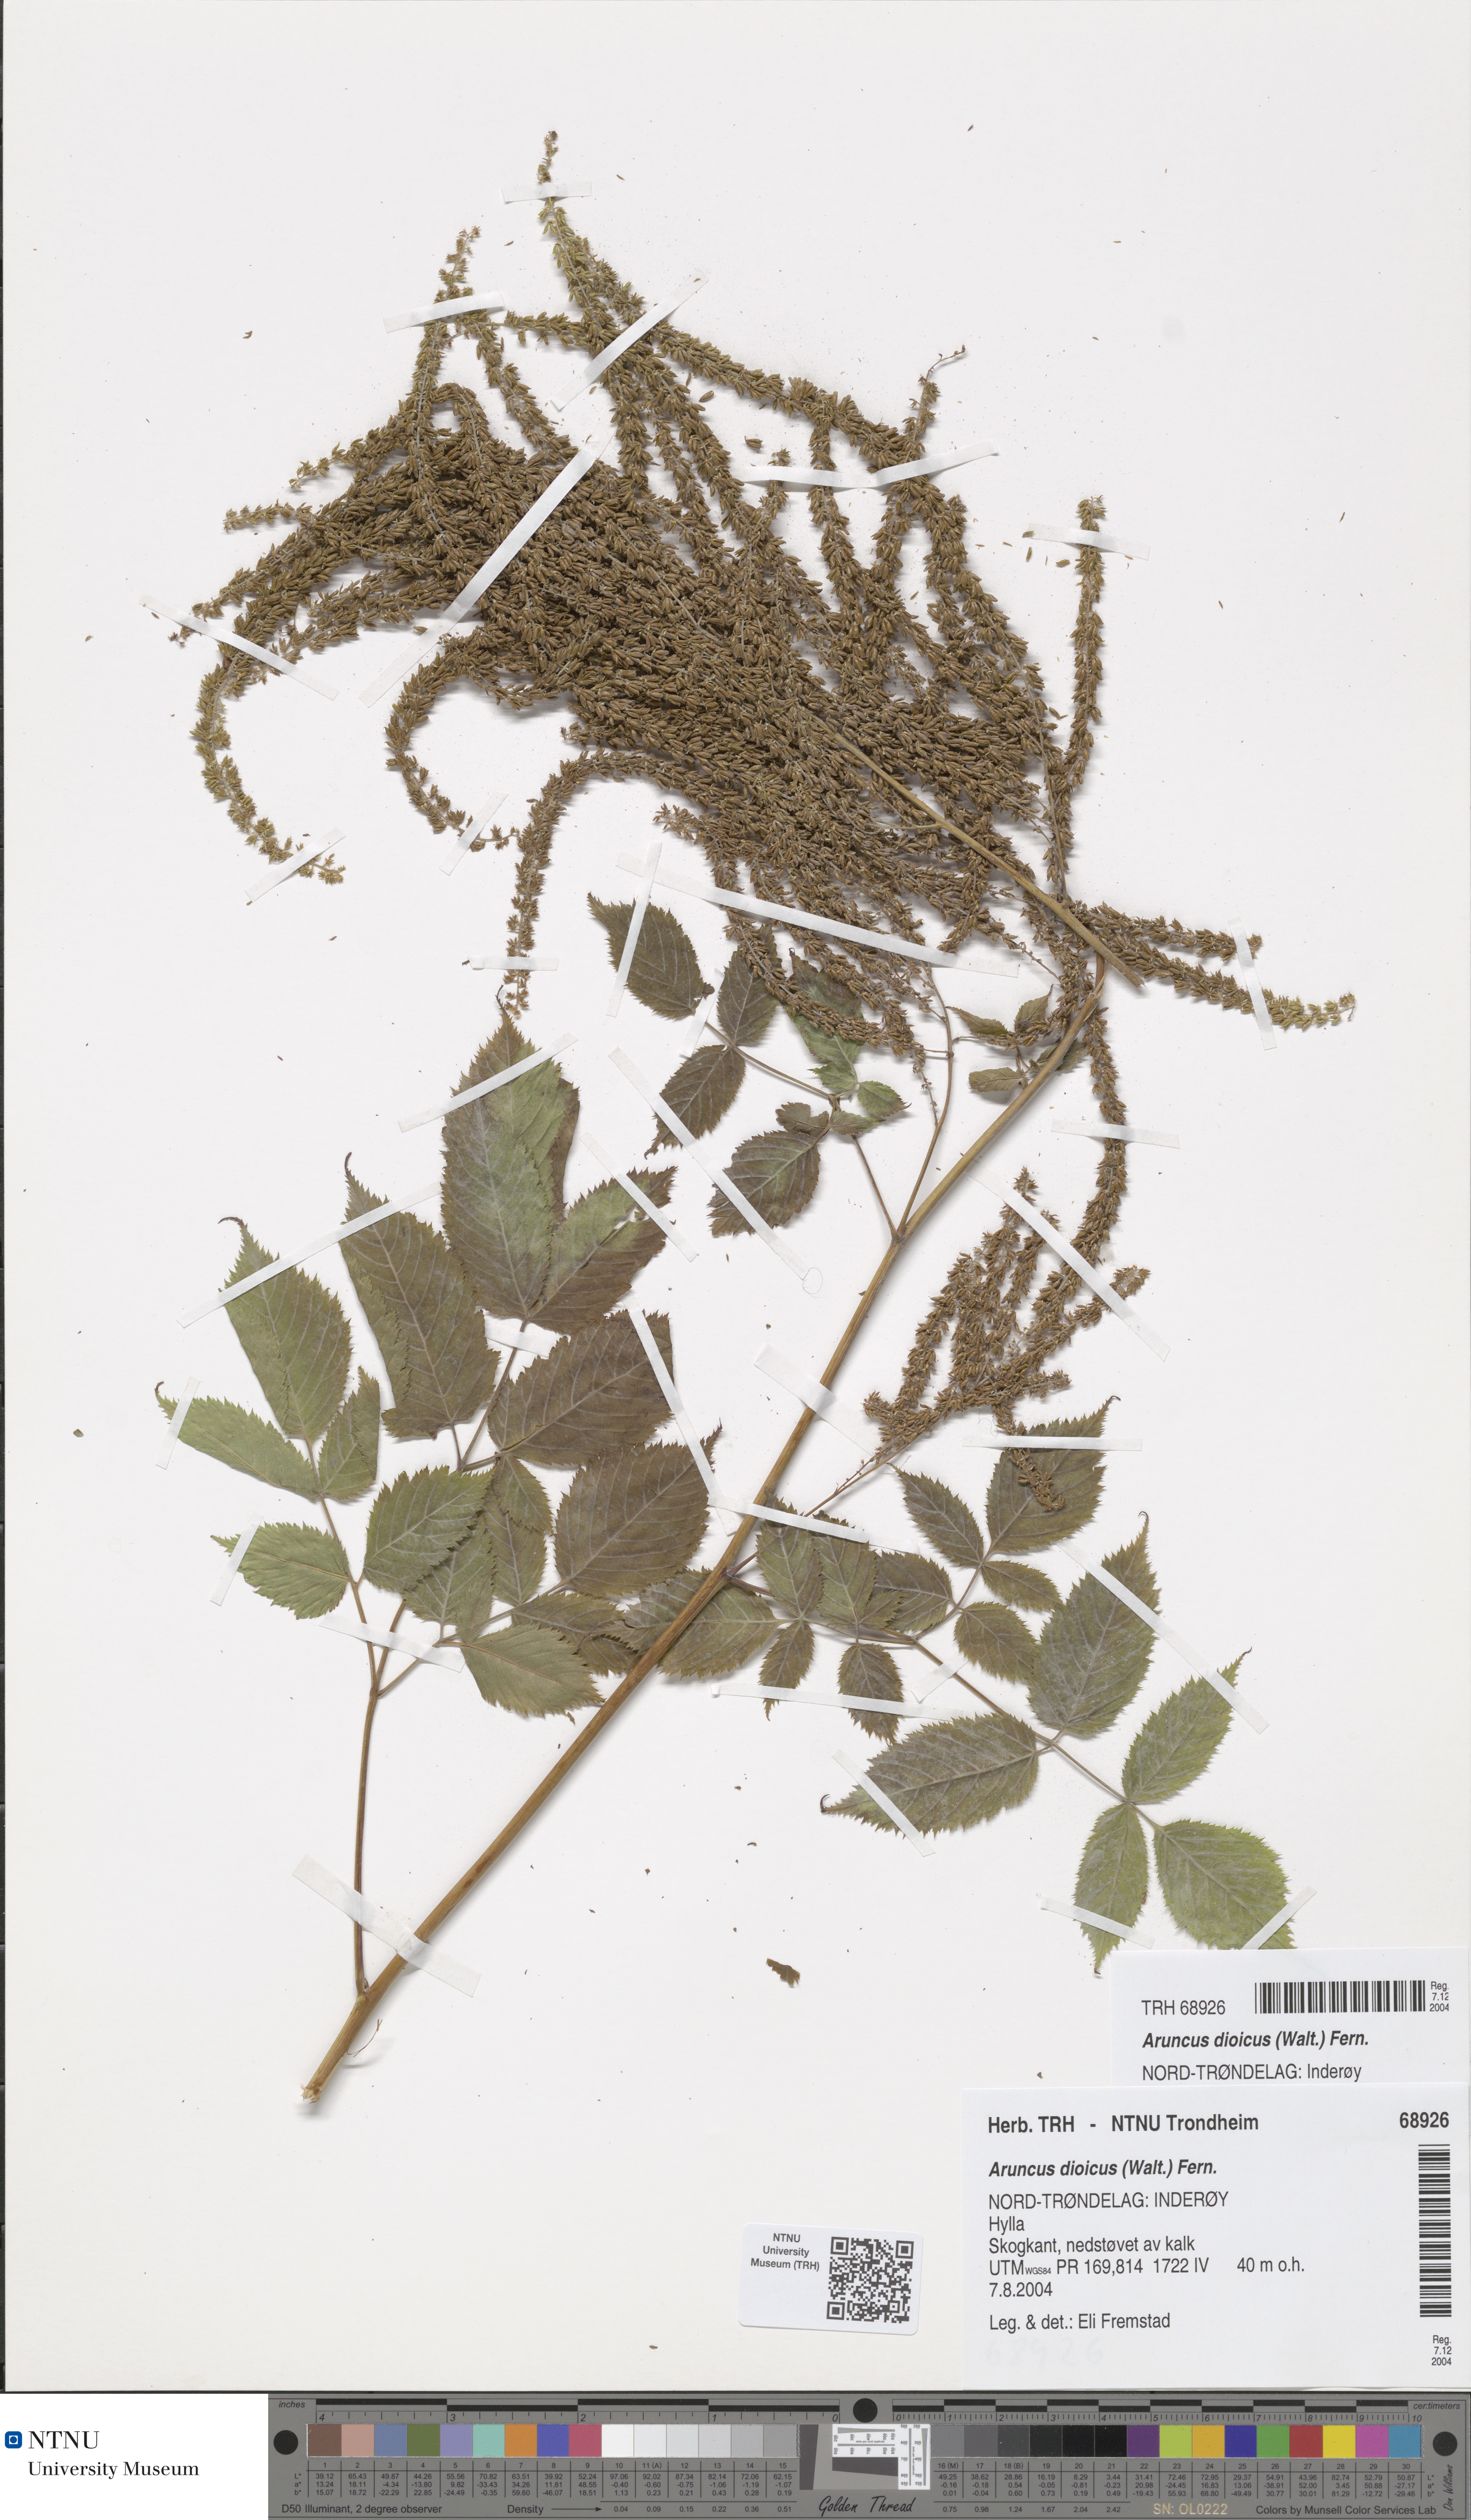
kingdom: Plantae
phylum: Tracheophyta
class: Magnoliopsida
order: Rosales
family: Rosaceae
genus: Aruncus
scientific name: Aruncus dioicus
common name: Buck's-beard
